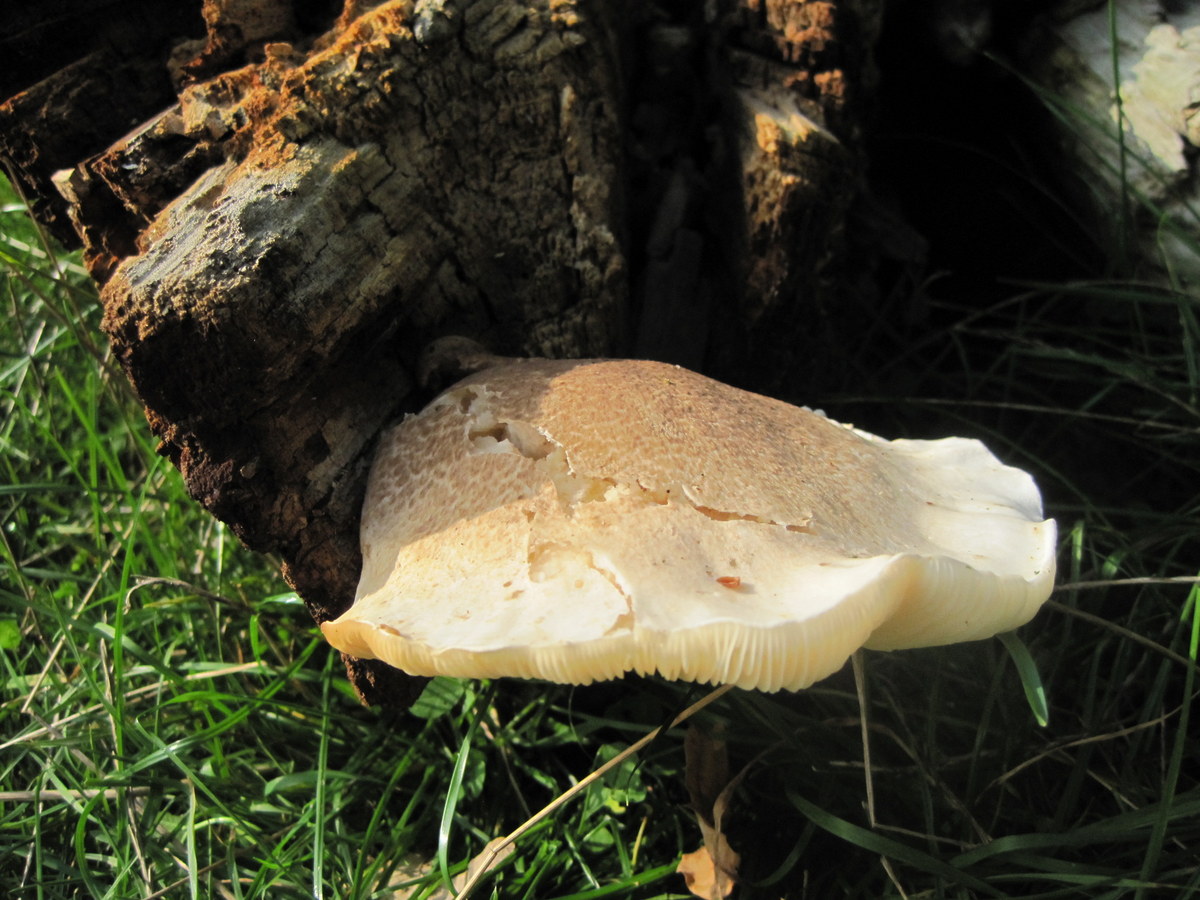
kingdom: Fungi
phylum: Basidiomycota
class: Agaricomycetes
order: Agaricales
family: Pleurotaceae
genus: Pleurotus
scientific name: Pleurotus dryinus
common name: korkagtig østershat
